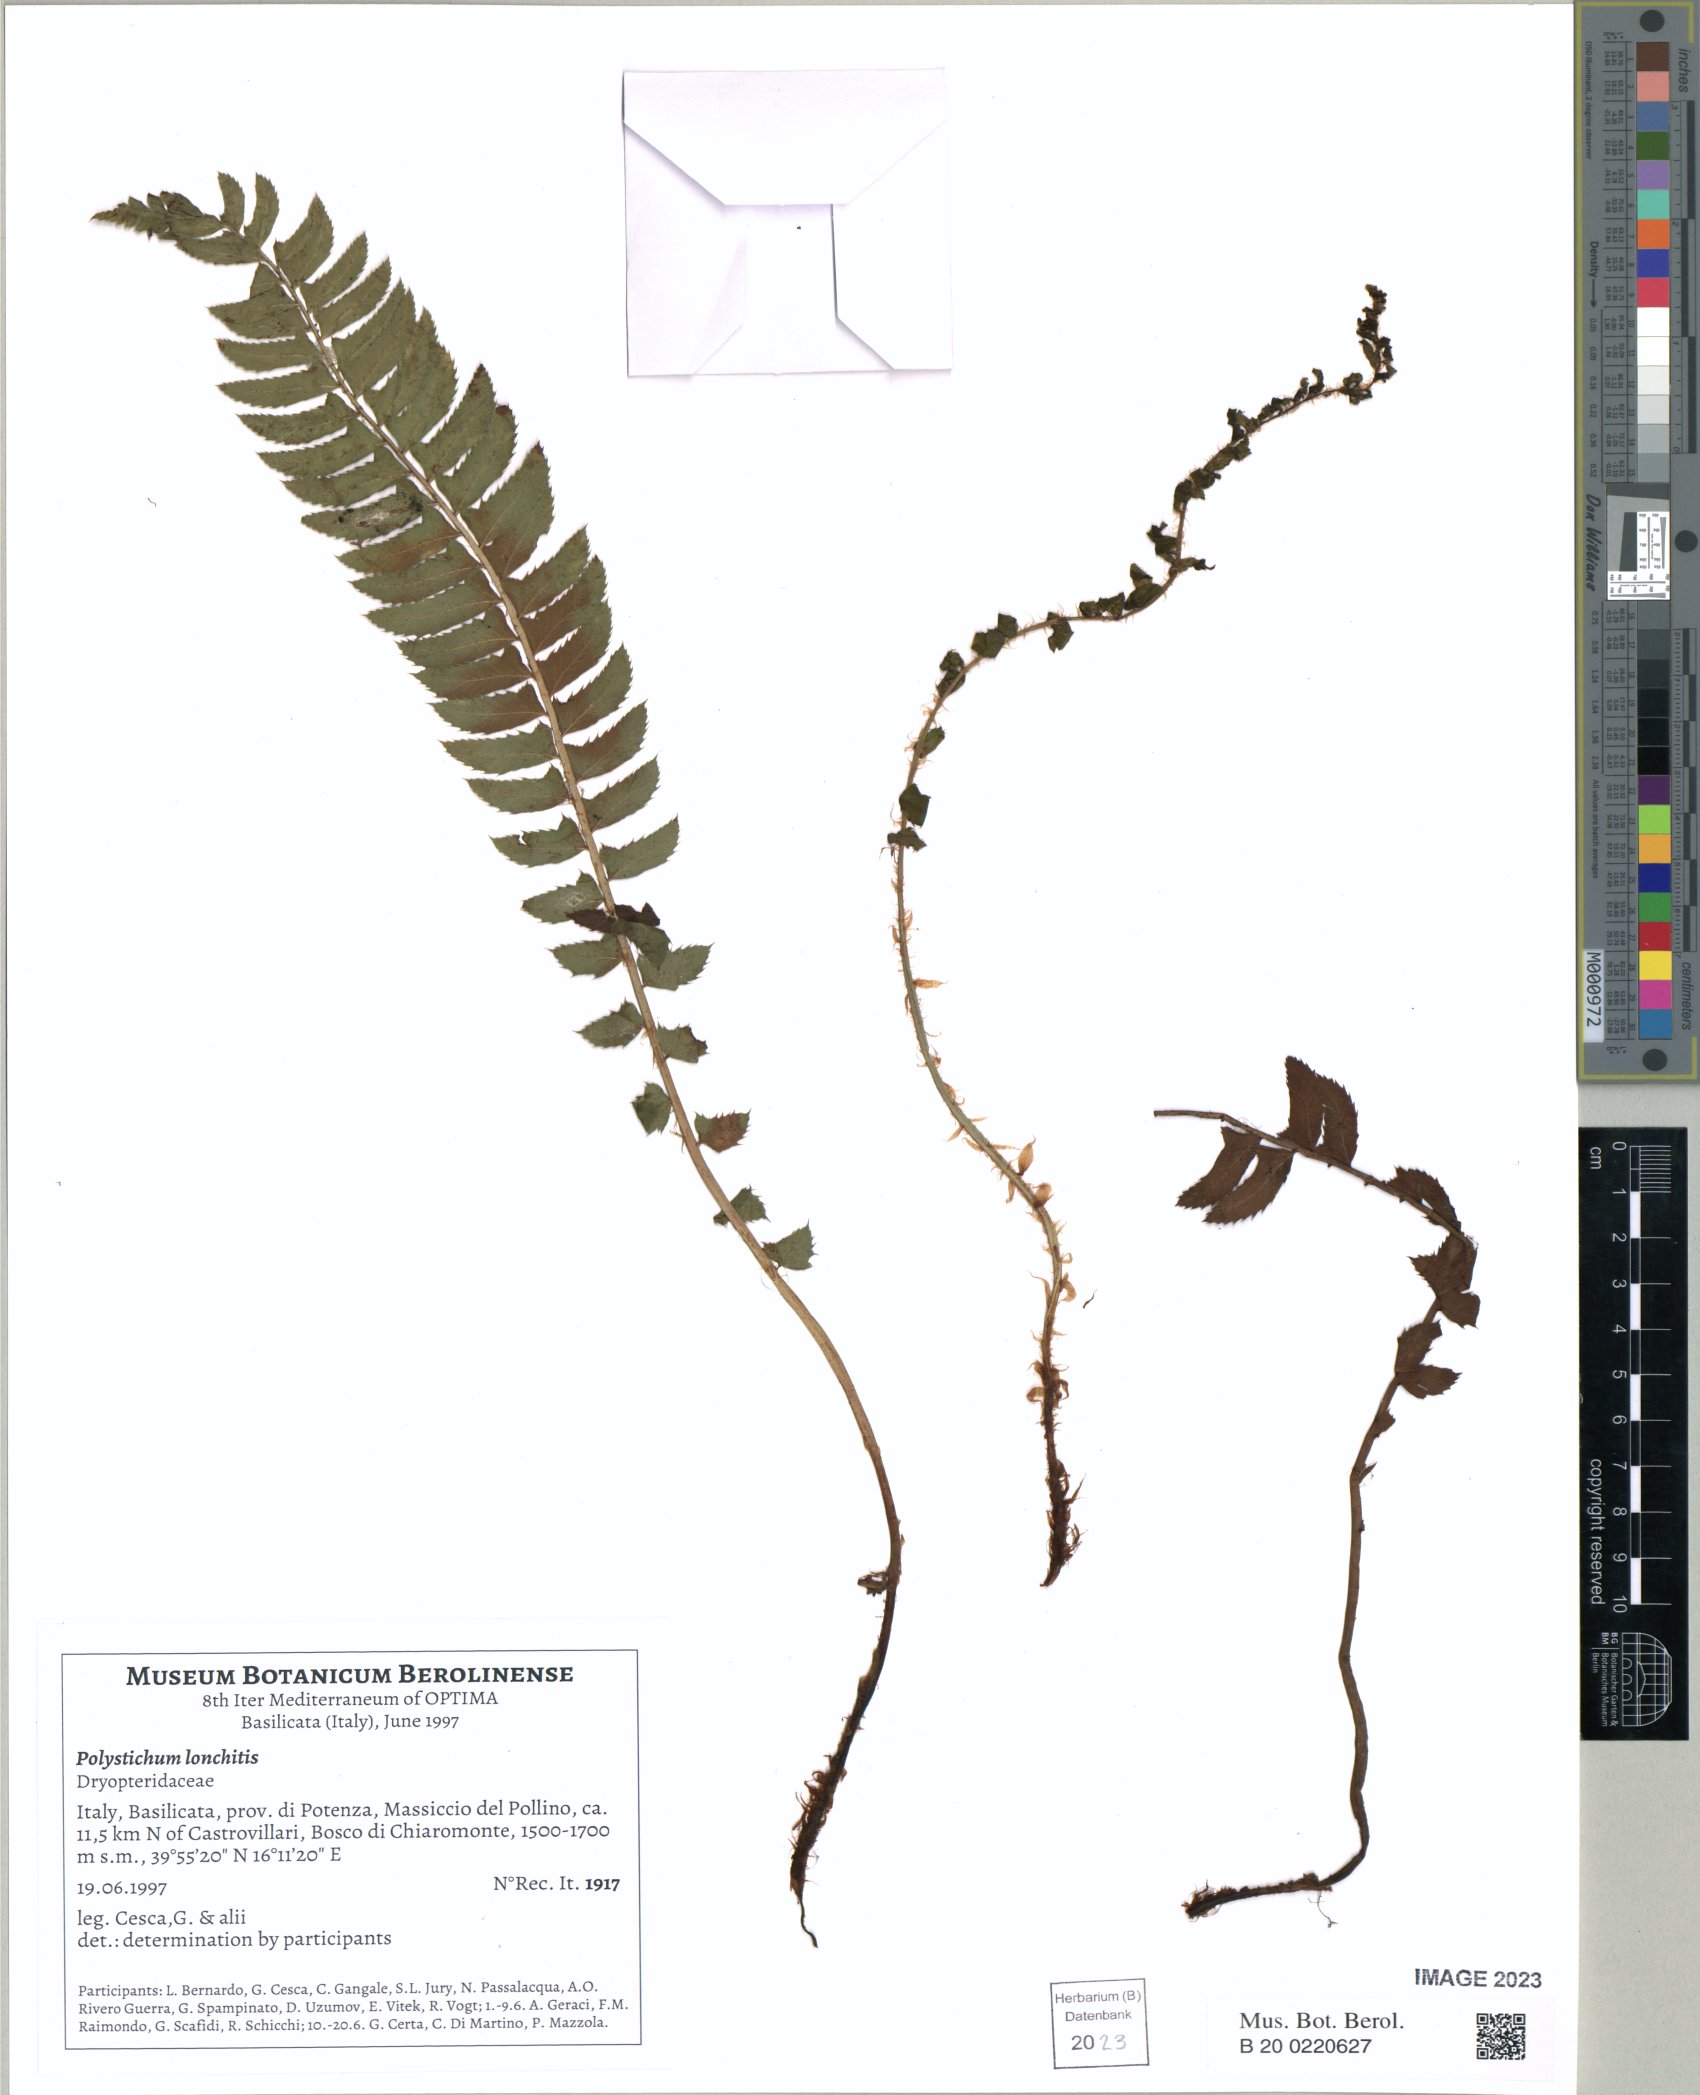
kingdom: Plantae
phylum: Tracheophyta
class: Polypodiopsida
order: Polypodiales
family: Dryopteridaceae
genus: Polystichum
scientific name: Polystichum lonchitis
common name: Holly fern
